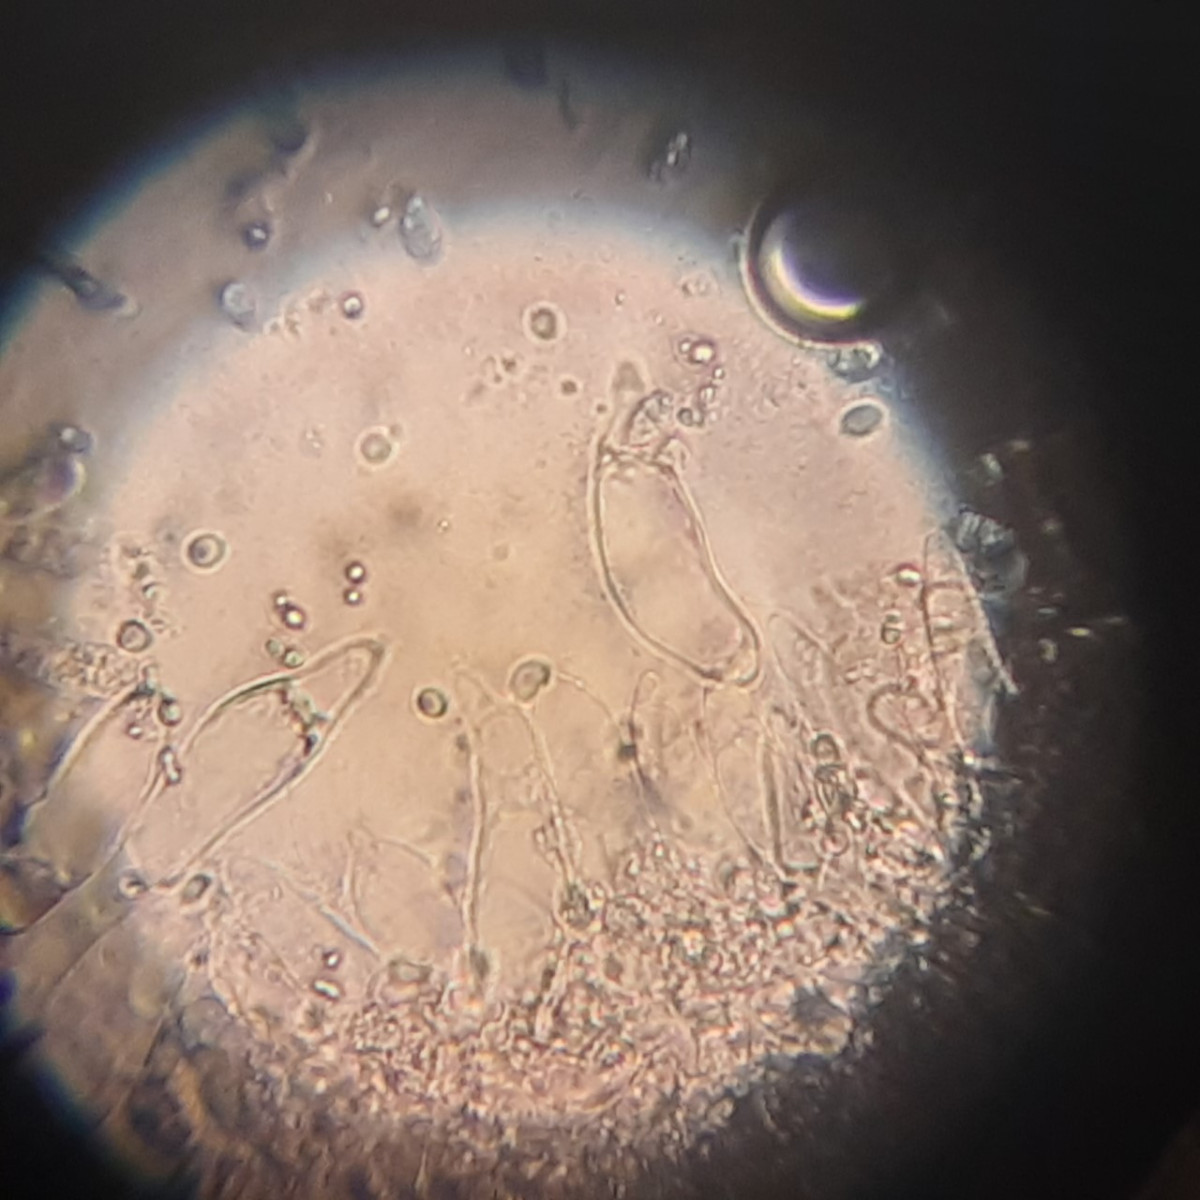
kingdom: Fungi
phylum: Basidiomycota
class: Agaricomycetes
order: Agaricales
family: Mycenaceae
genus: Mycena
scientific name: Mycena leptocephala
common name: klor-huesvamp
